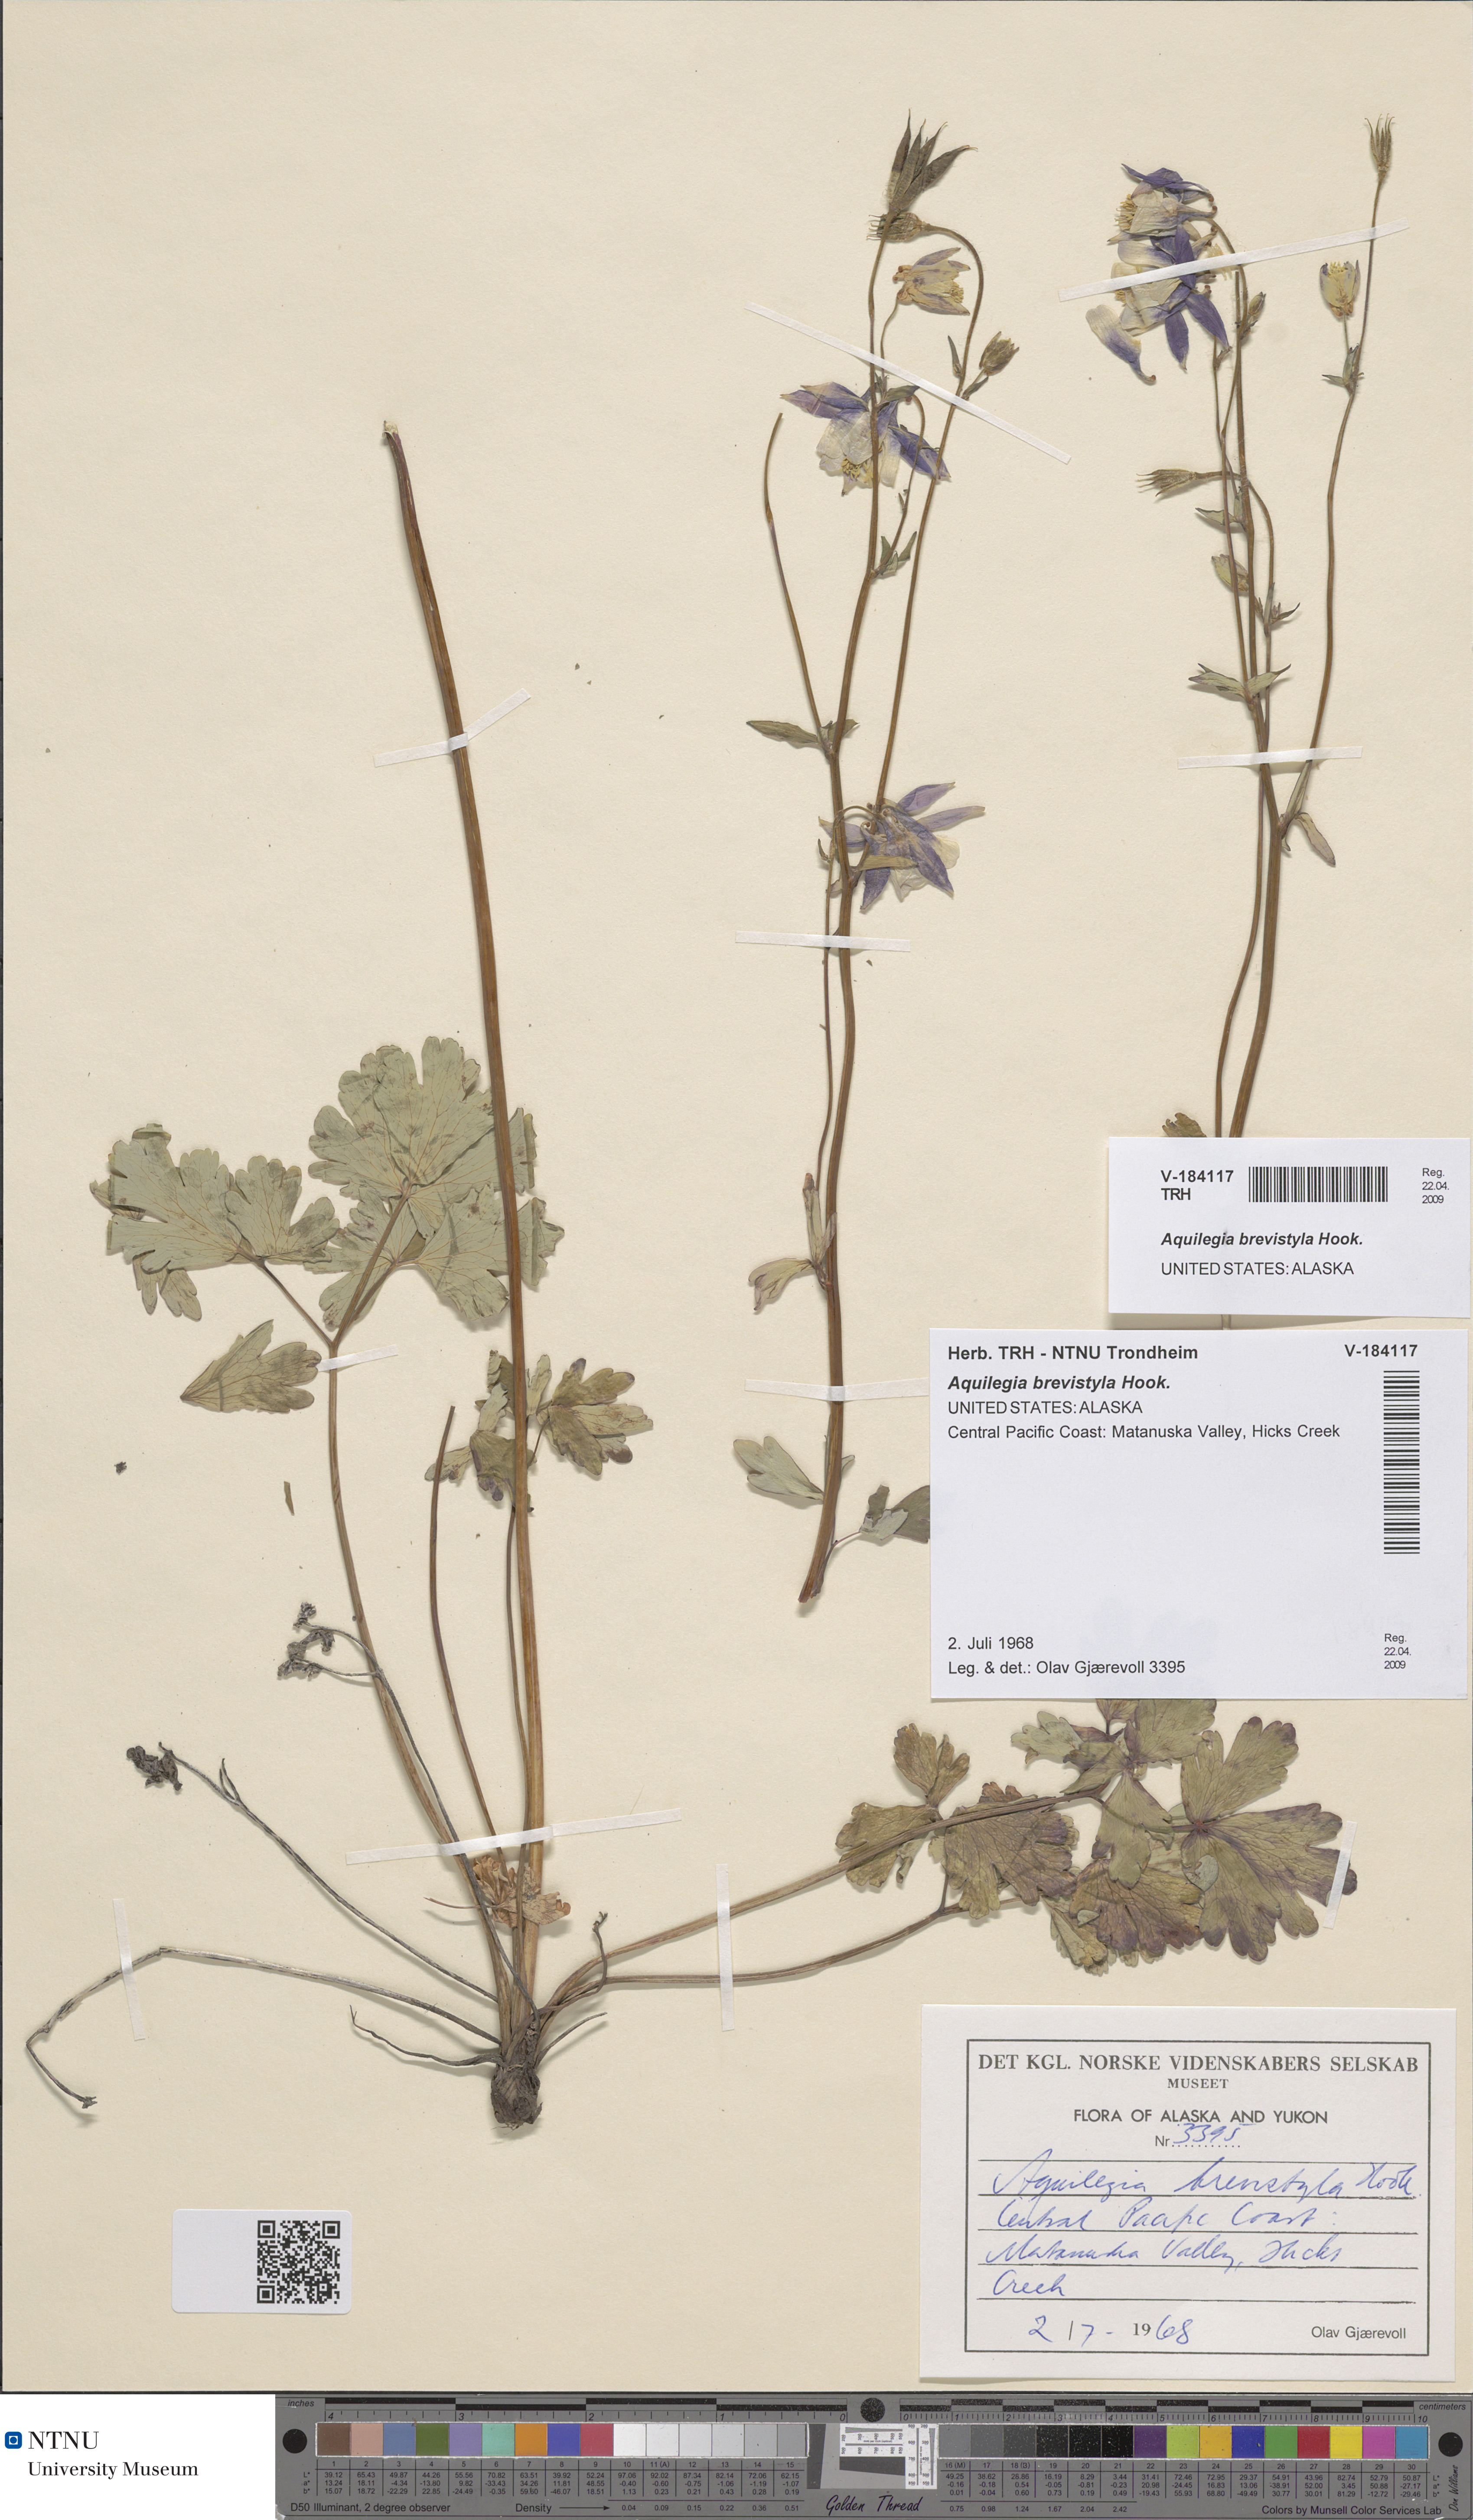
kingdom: Plantae
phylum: Tracheophyta
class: Magnoliopsida
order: Ranunculales
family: Ranunculaceae
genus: Aquilegia
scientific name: Aquilegia brevistyla
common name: Yukon columbine
